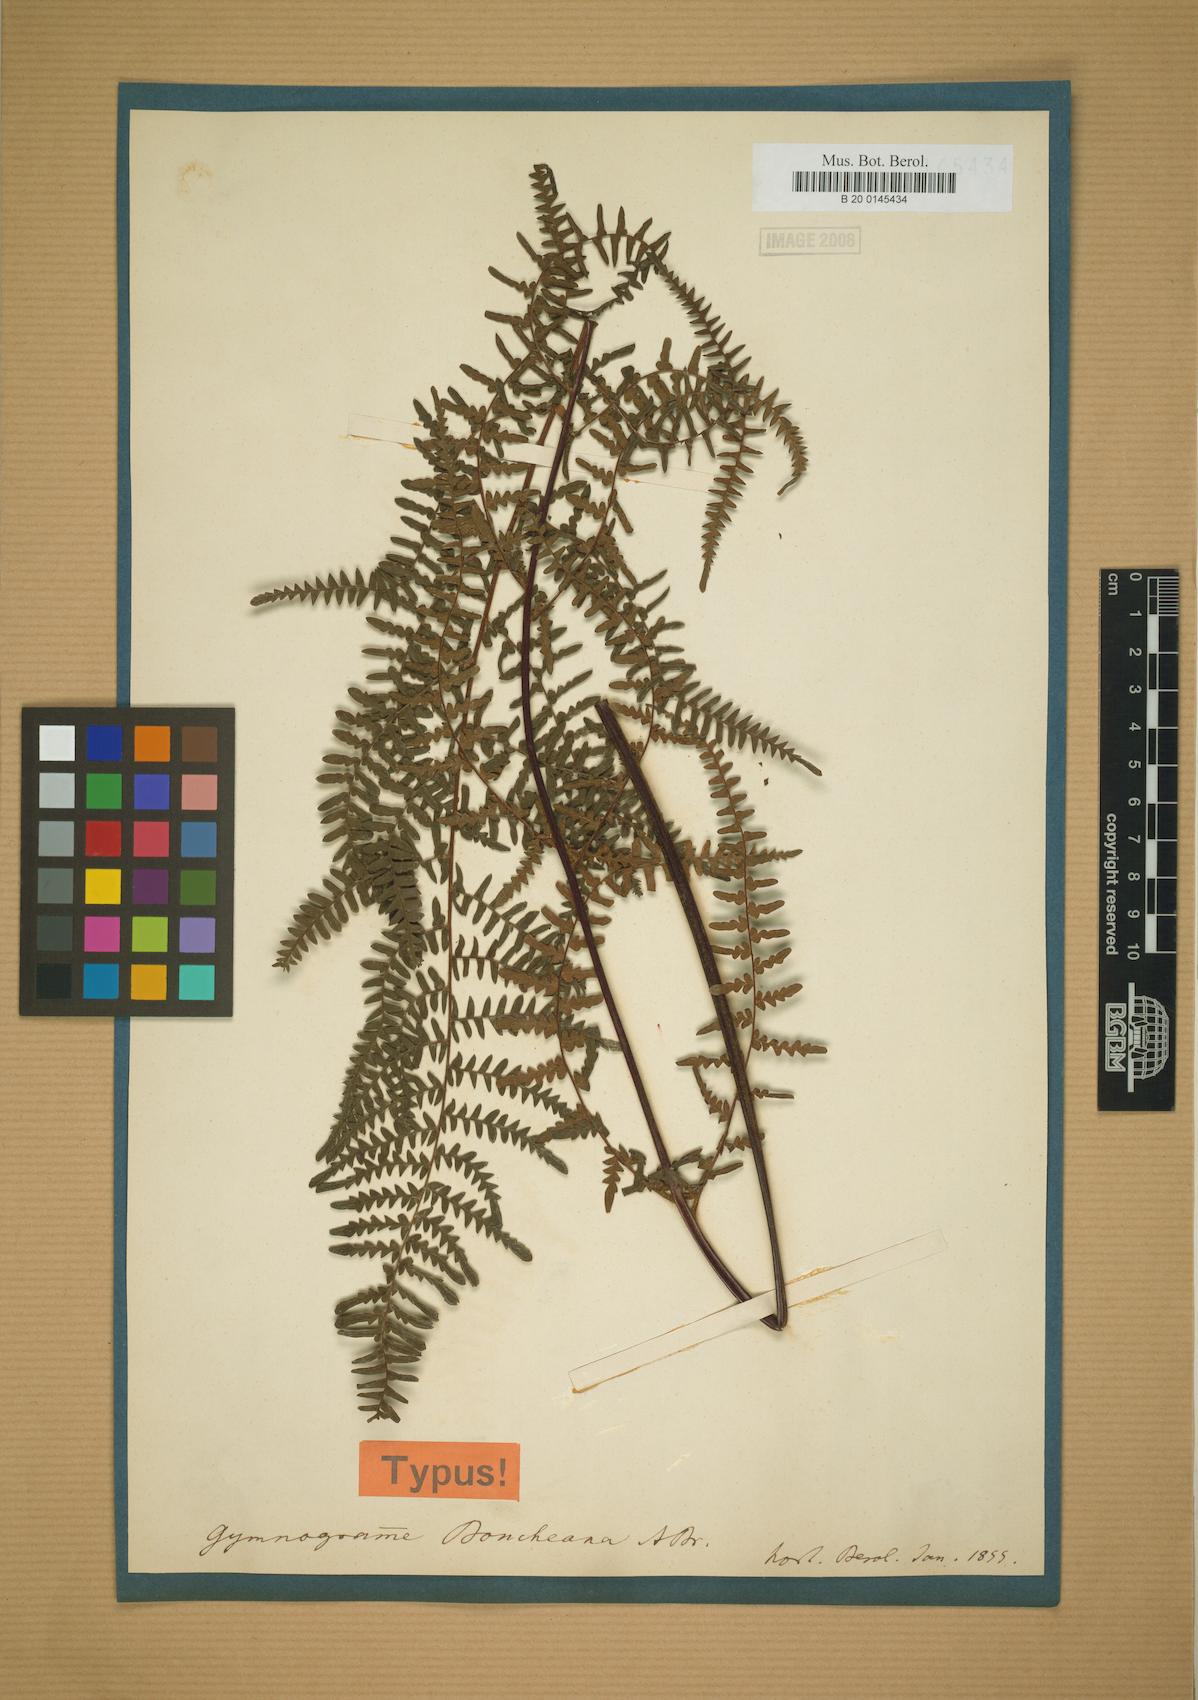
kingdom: Plantae
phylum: Tracheophyta
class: Polypodiopsida
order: Polypodiales
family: Adiantaceae
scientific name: Adiantaceae
